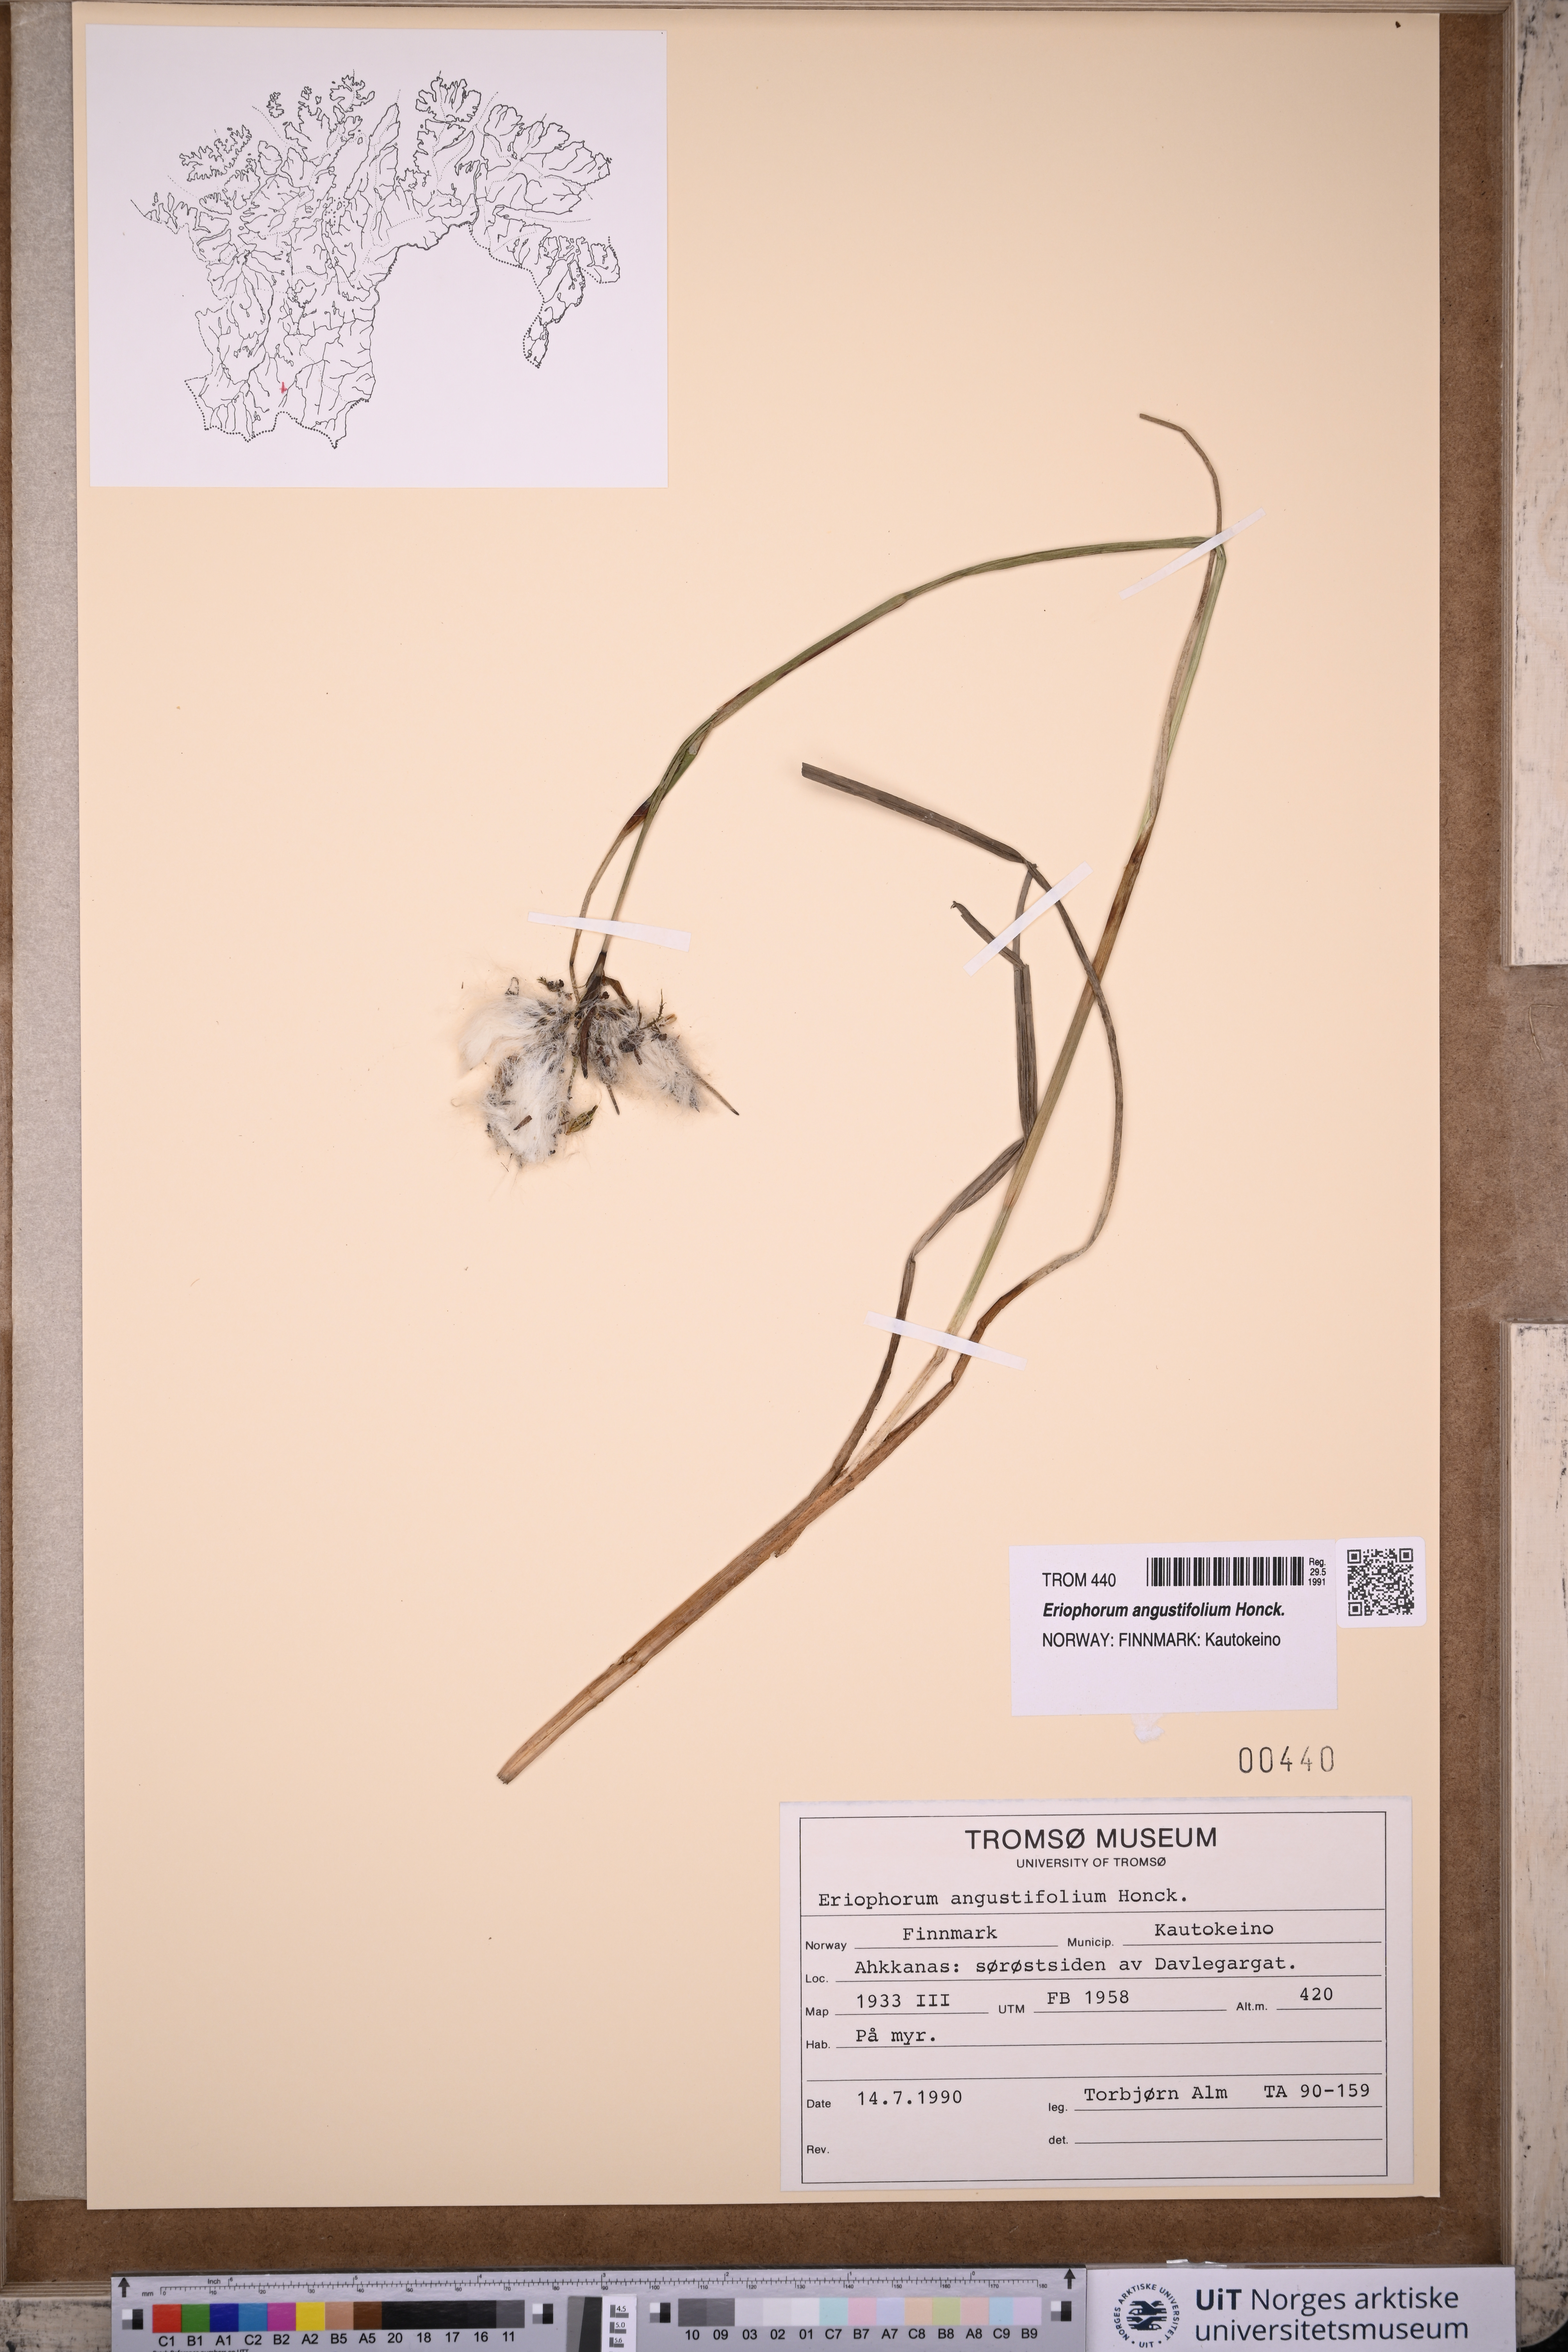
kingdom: Plantae
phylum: Tracheophyta
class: Liliopsida
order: Poales
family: Cyperaceae
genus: Eriophorum
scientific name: Eriophorum angustifolium
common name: Common cottongrass
